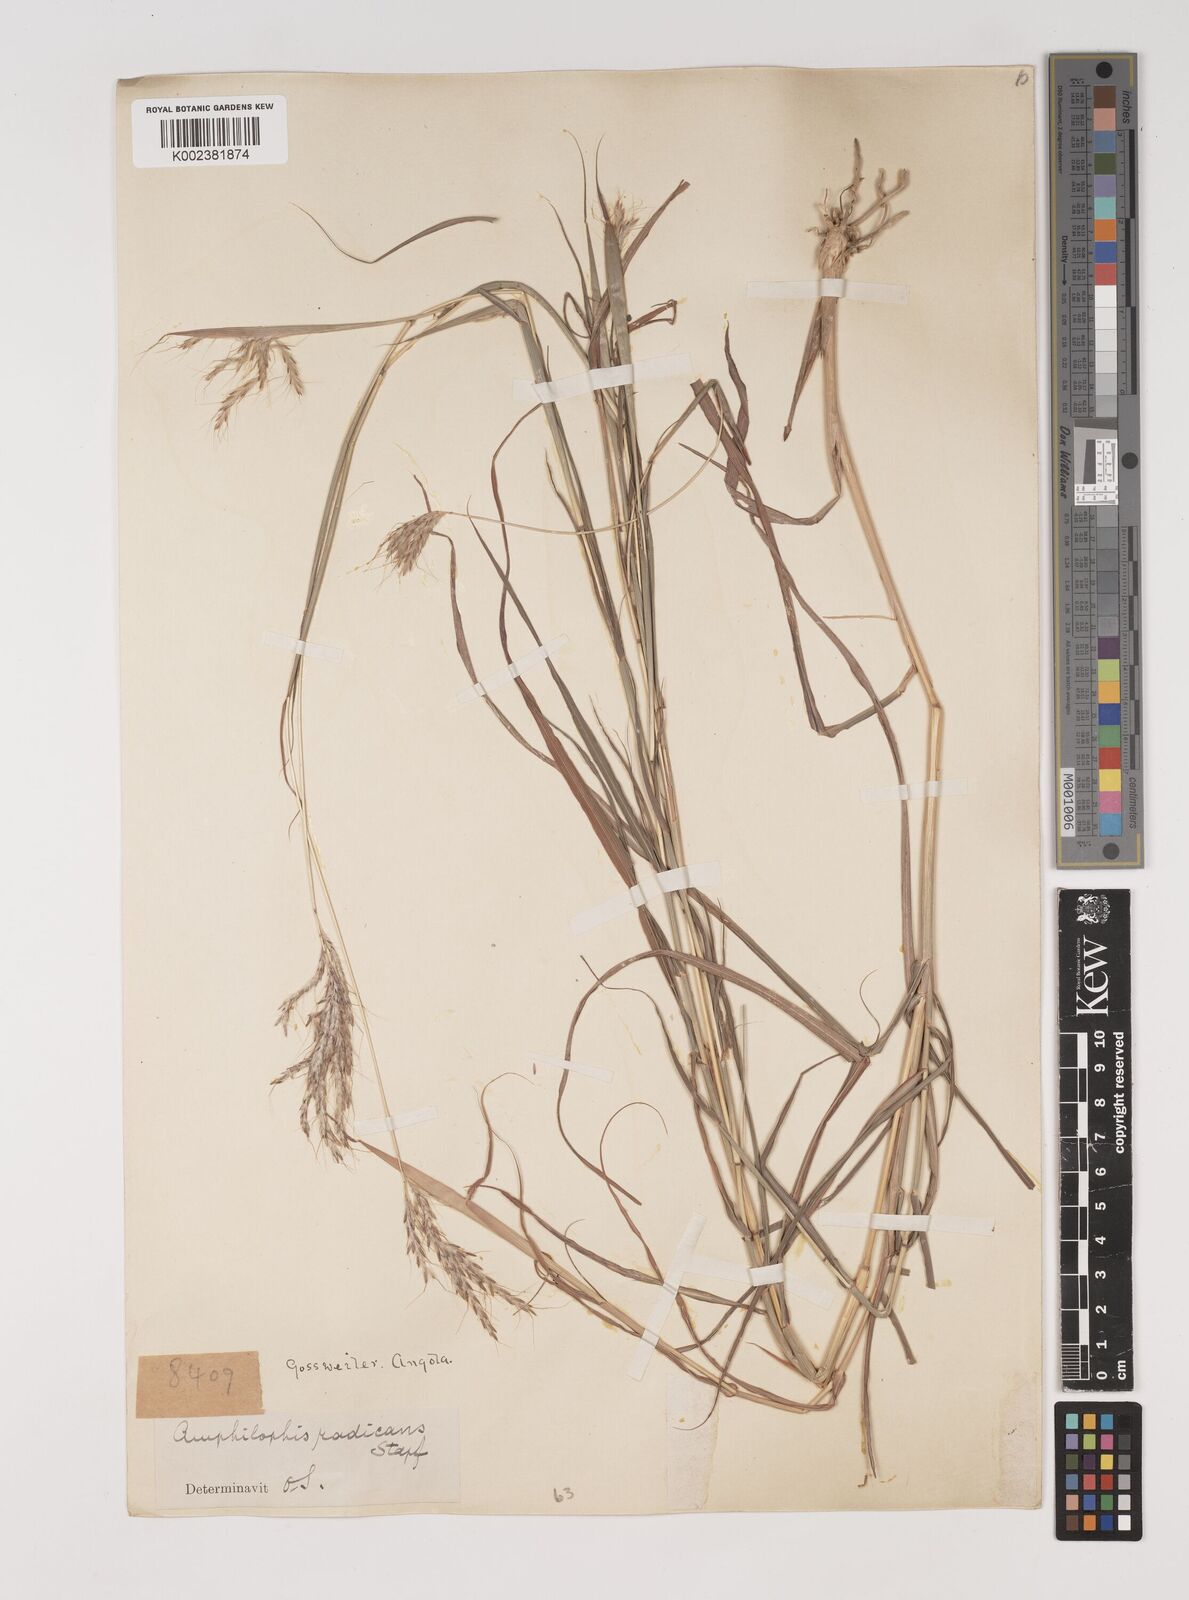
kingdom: Plantae
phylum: Tracheophyta
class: Liliopsida
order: Poales
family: Poaceae
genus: Bothriochloa
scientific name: Bothriochloa radicans
